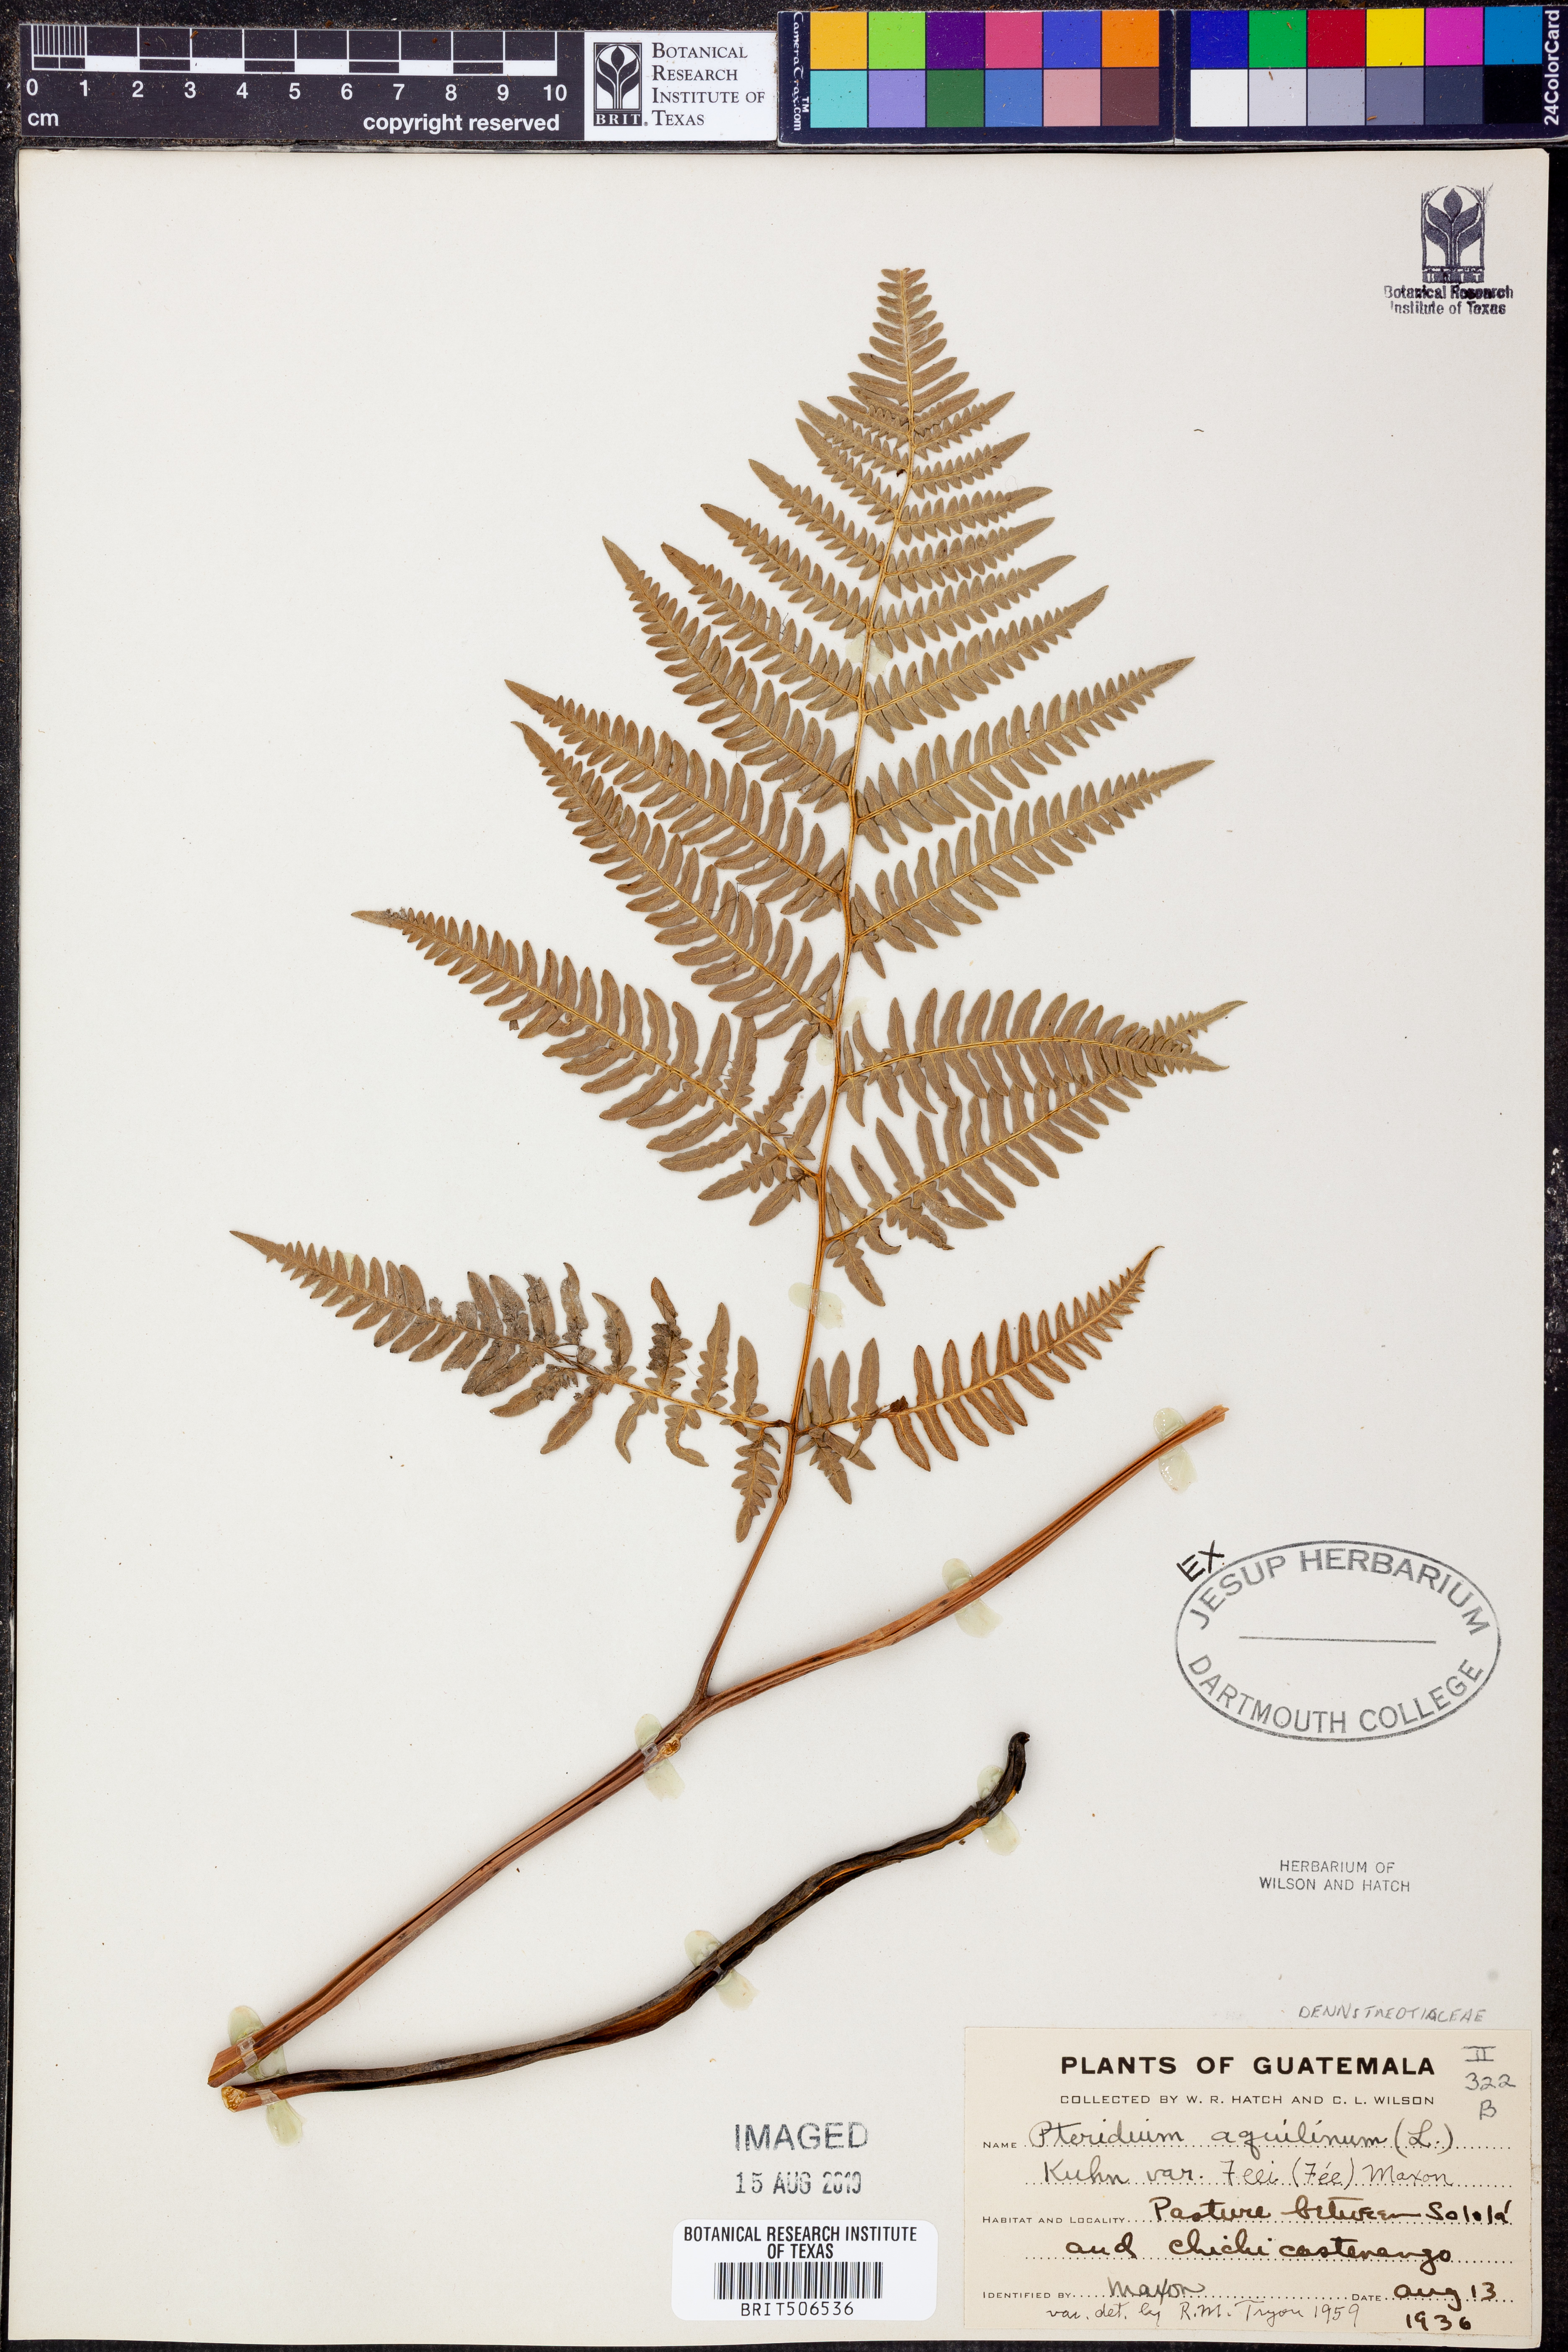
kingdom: Plantae
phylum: Tracheophyta
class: Polypodiopsida
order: Polypodiales
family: Dennstaedtiaceae
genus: Pteridium
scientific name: Pteridium aquilinum
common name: Bracken
